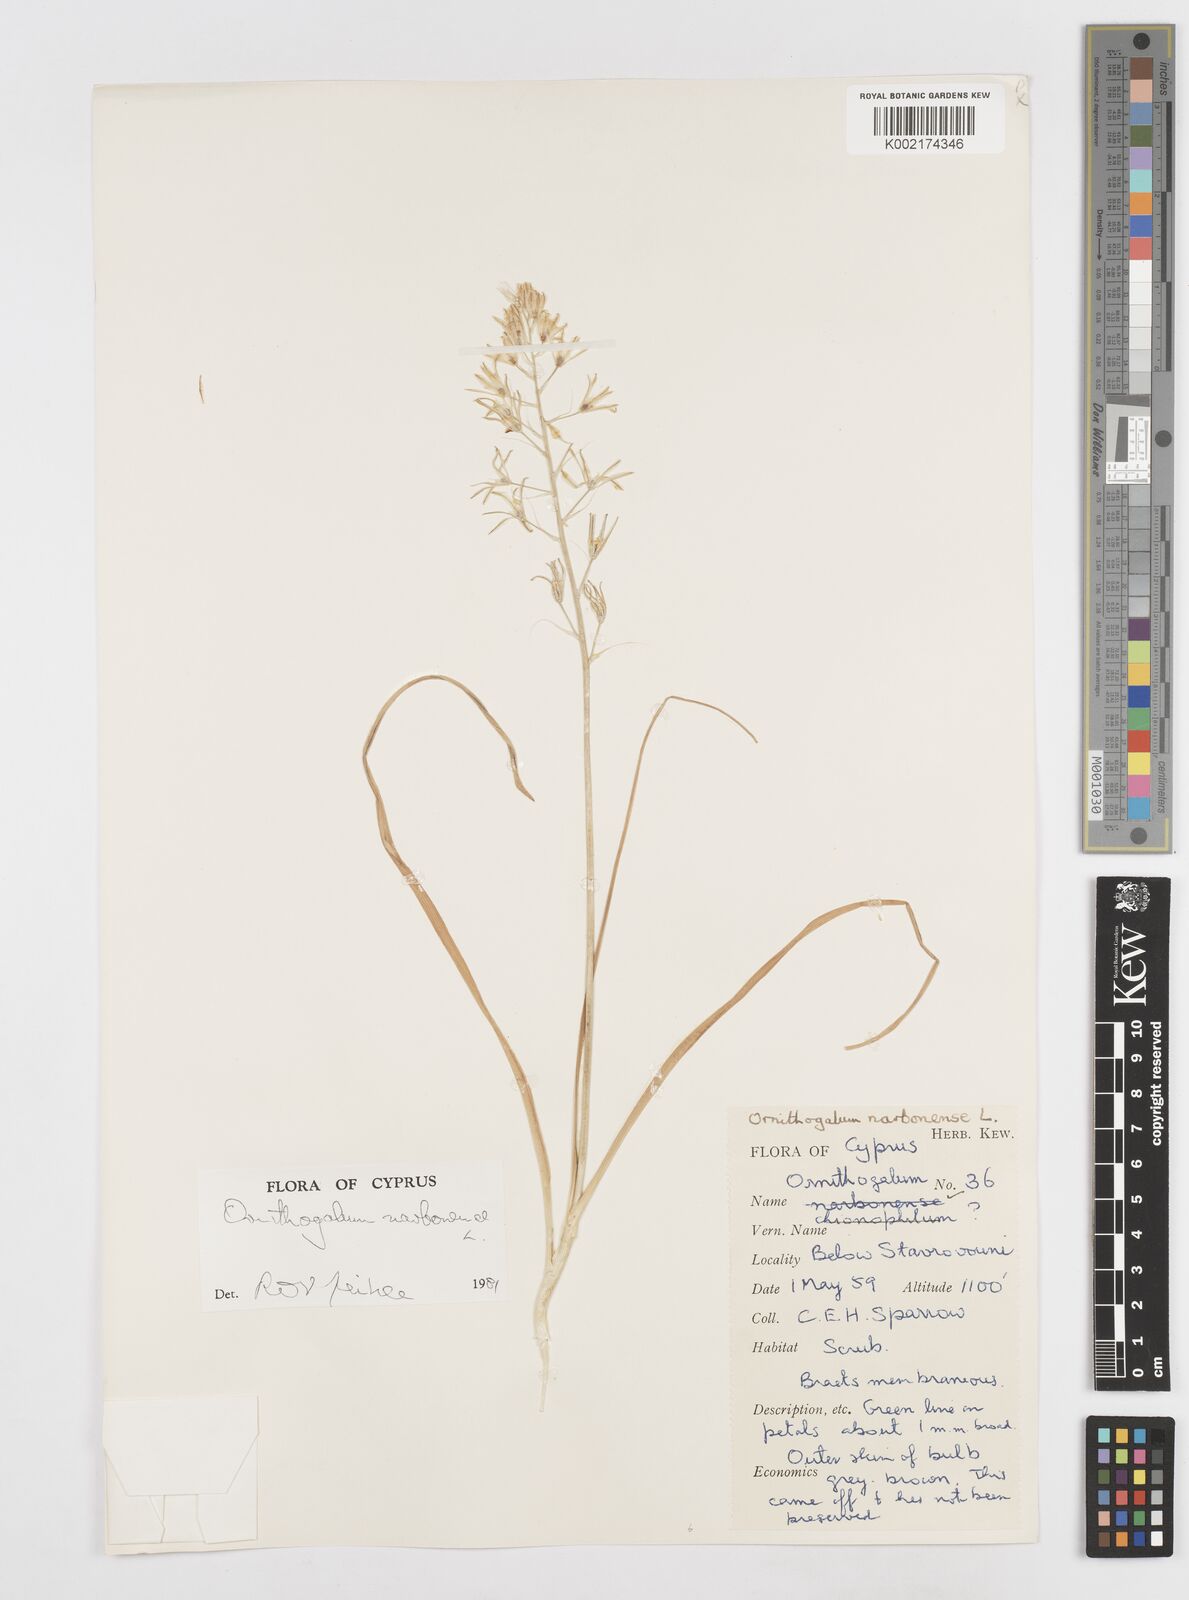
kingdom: Plantae
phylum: Tracheophyta
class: Liliopsida
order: Asparagales
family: Asparagaceae
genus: Ornithogalum
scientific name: Ornithogalum narbonense
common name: Bath-asparagus
